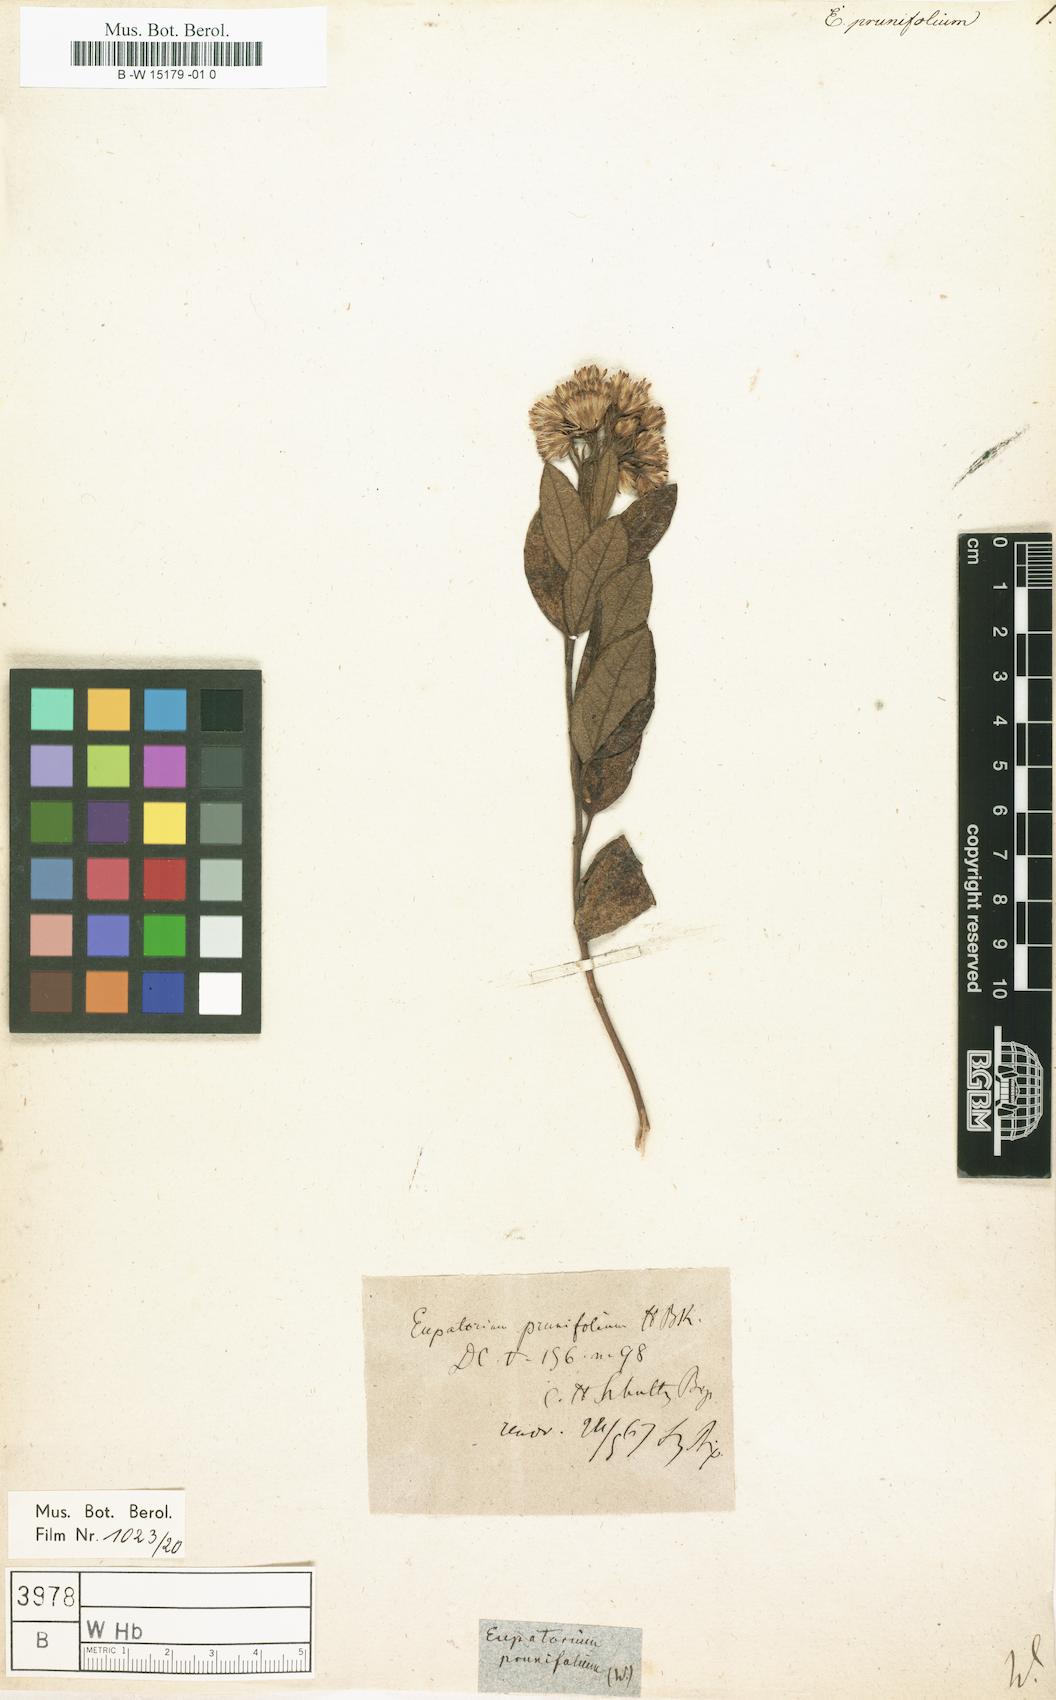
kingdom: Plantae
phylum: Tracheophyta
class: Magnoliopsida
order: Asterales
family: Asteraceae
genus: Ageratina
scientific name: Ageratina prunifolia
